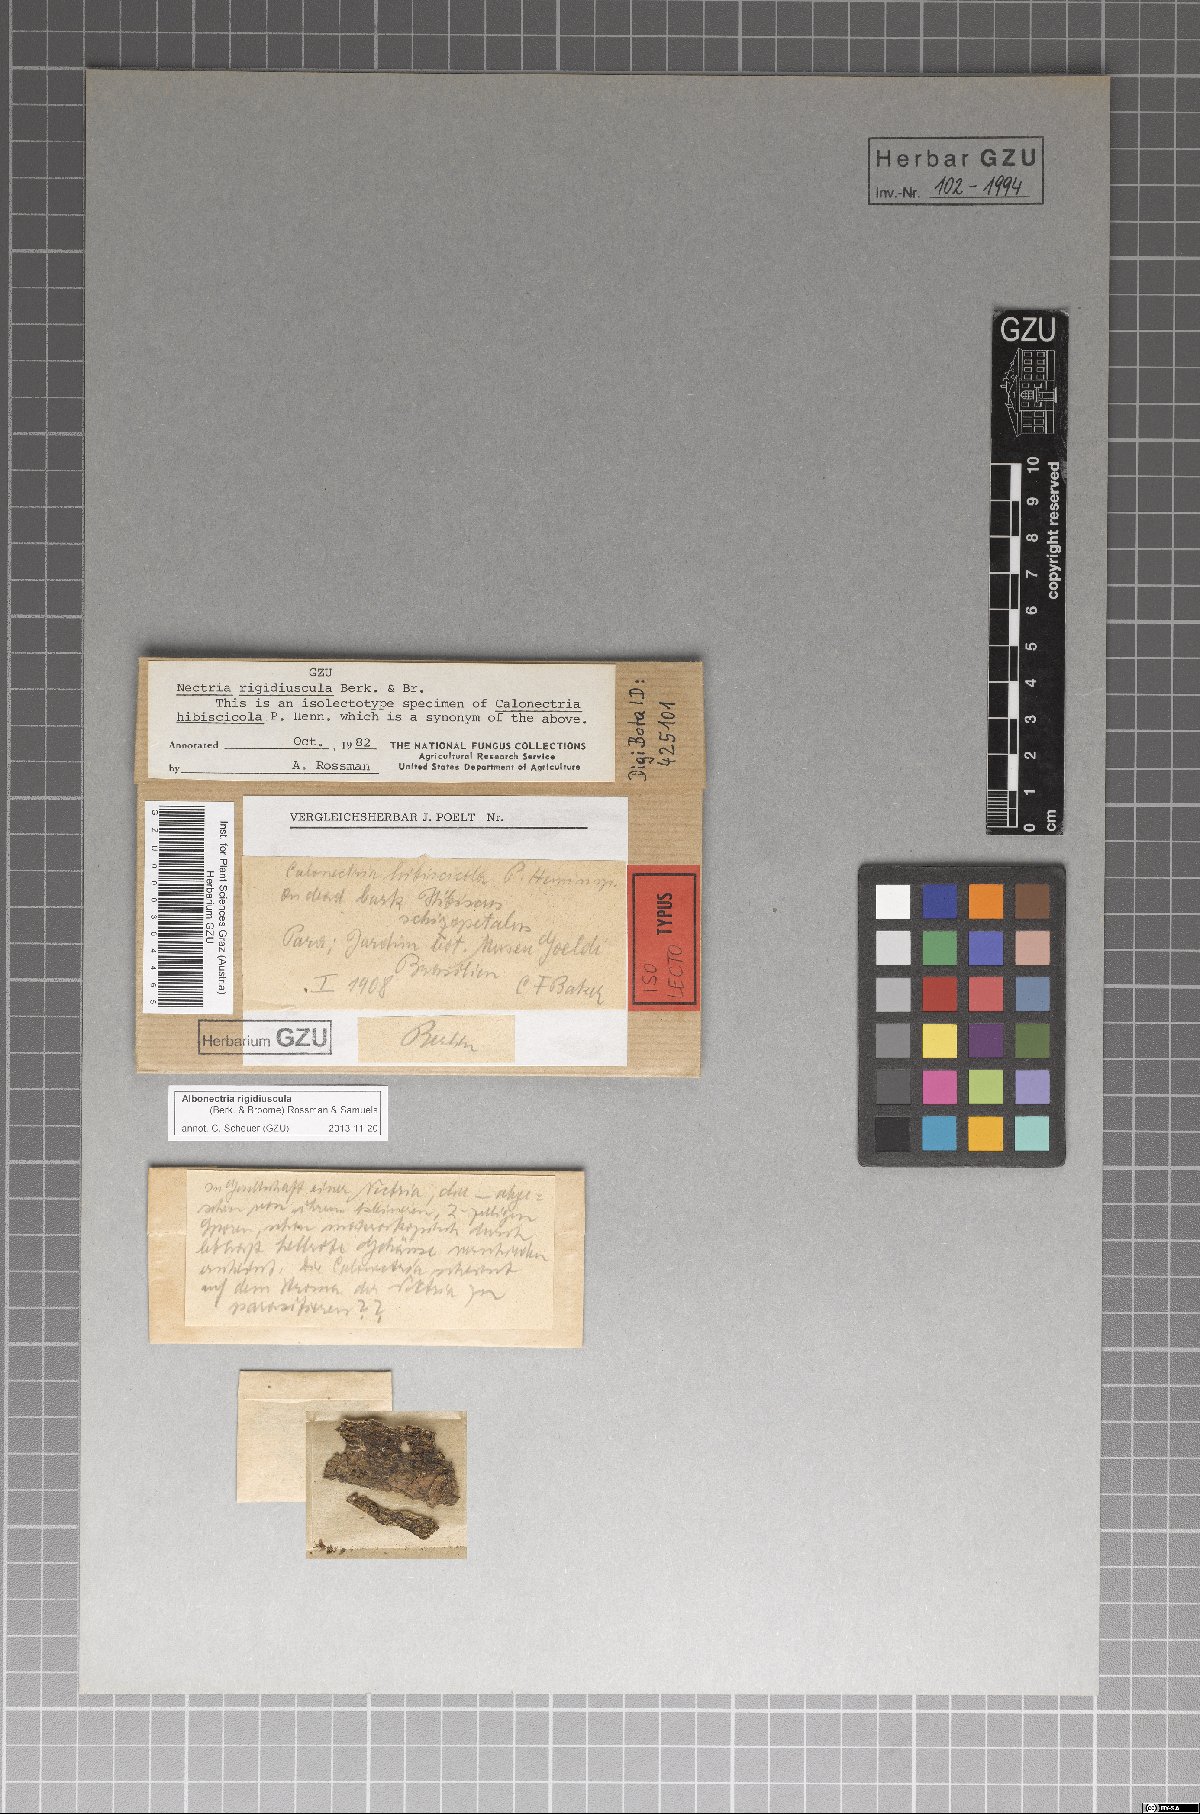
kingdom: Fungi
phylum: Ascomycota
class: Sordariomycetes
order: Hypocreales
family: Nectriaceae
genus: Calonectria
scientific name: Calonectria
